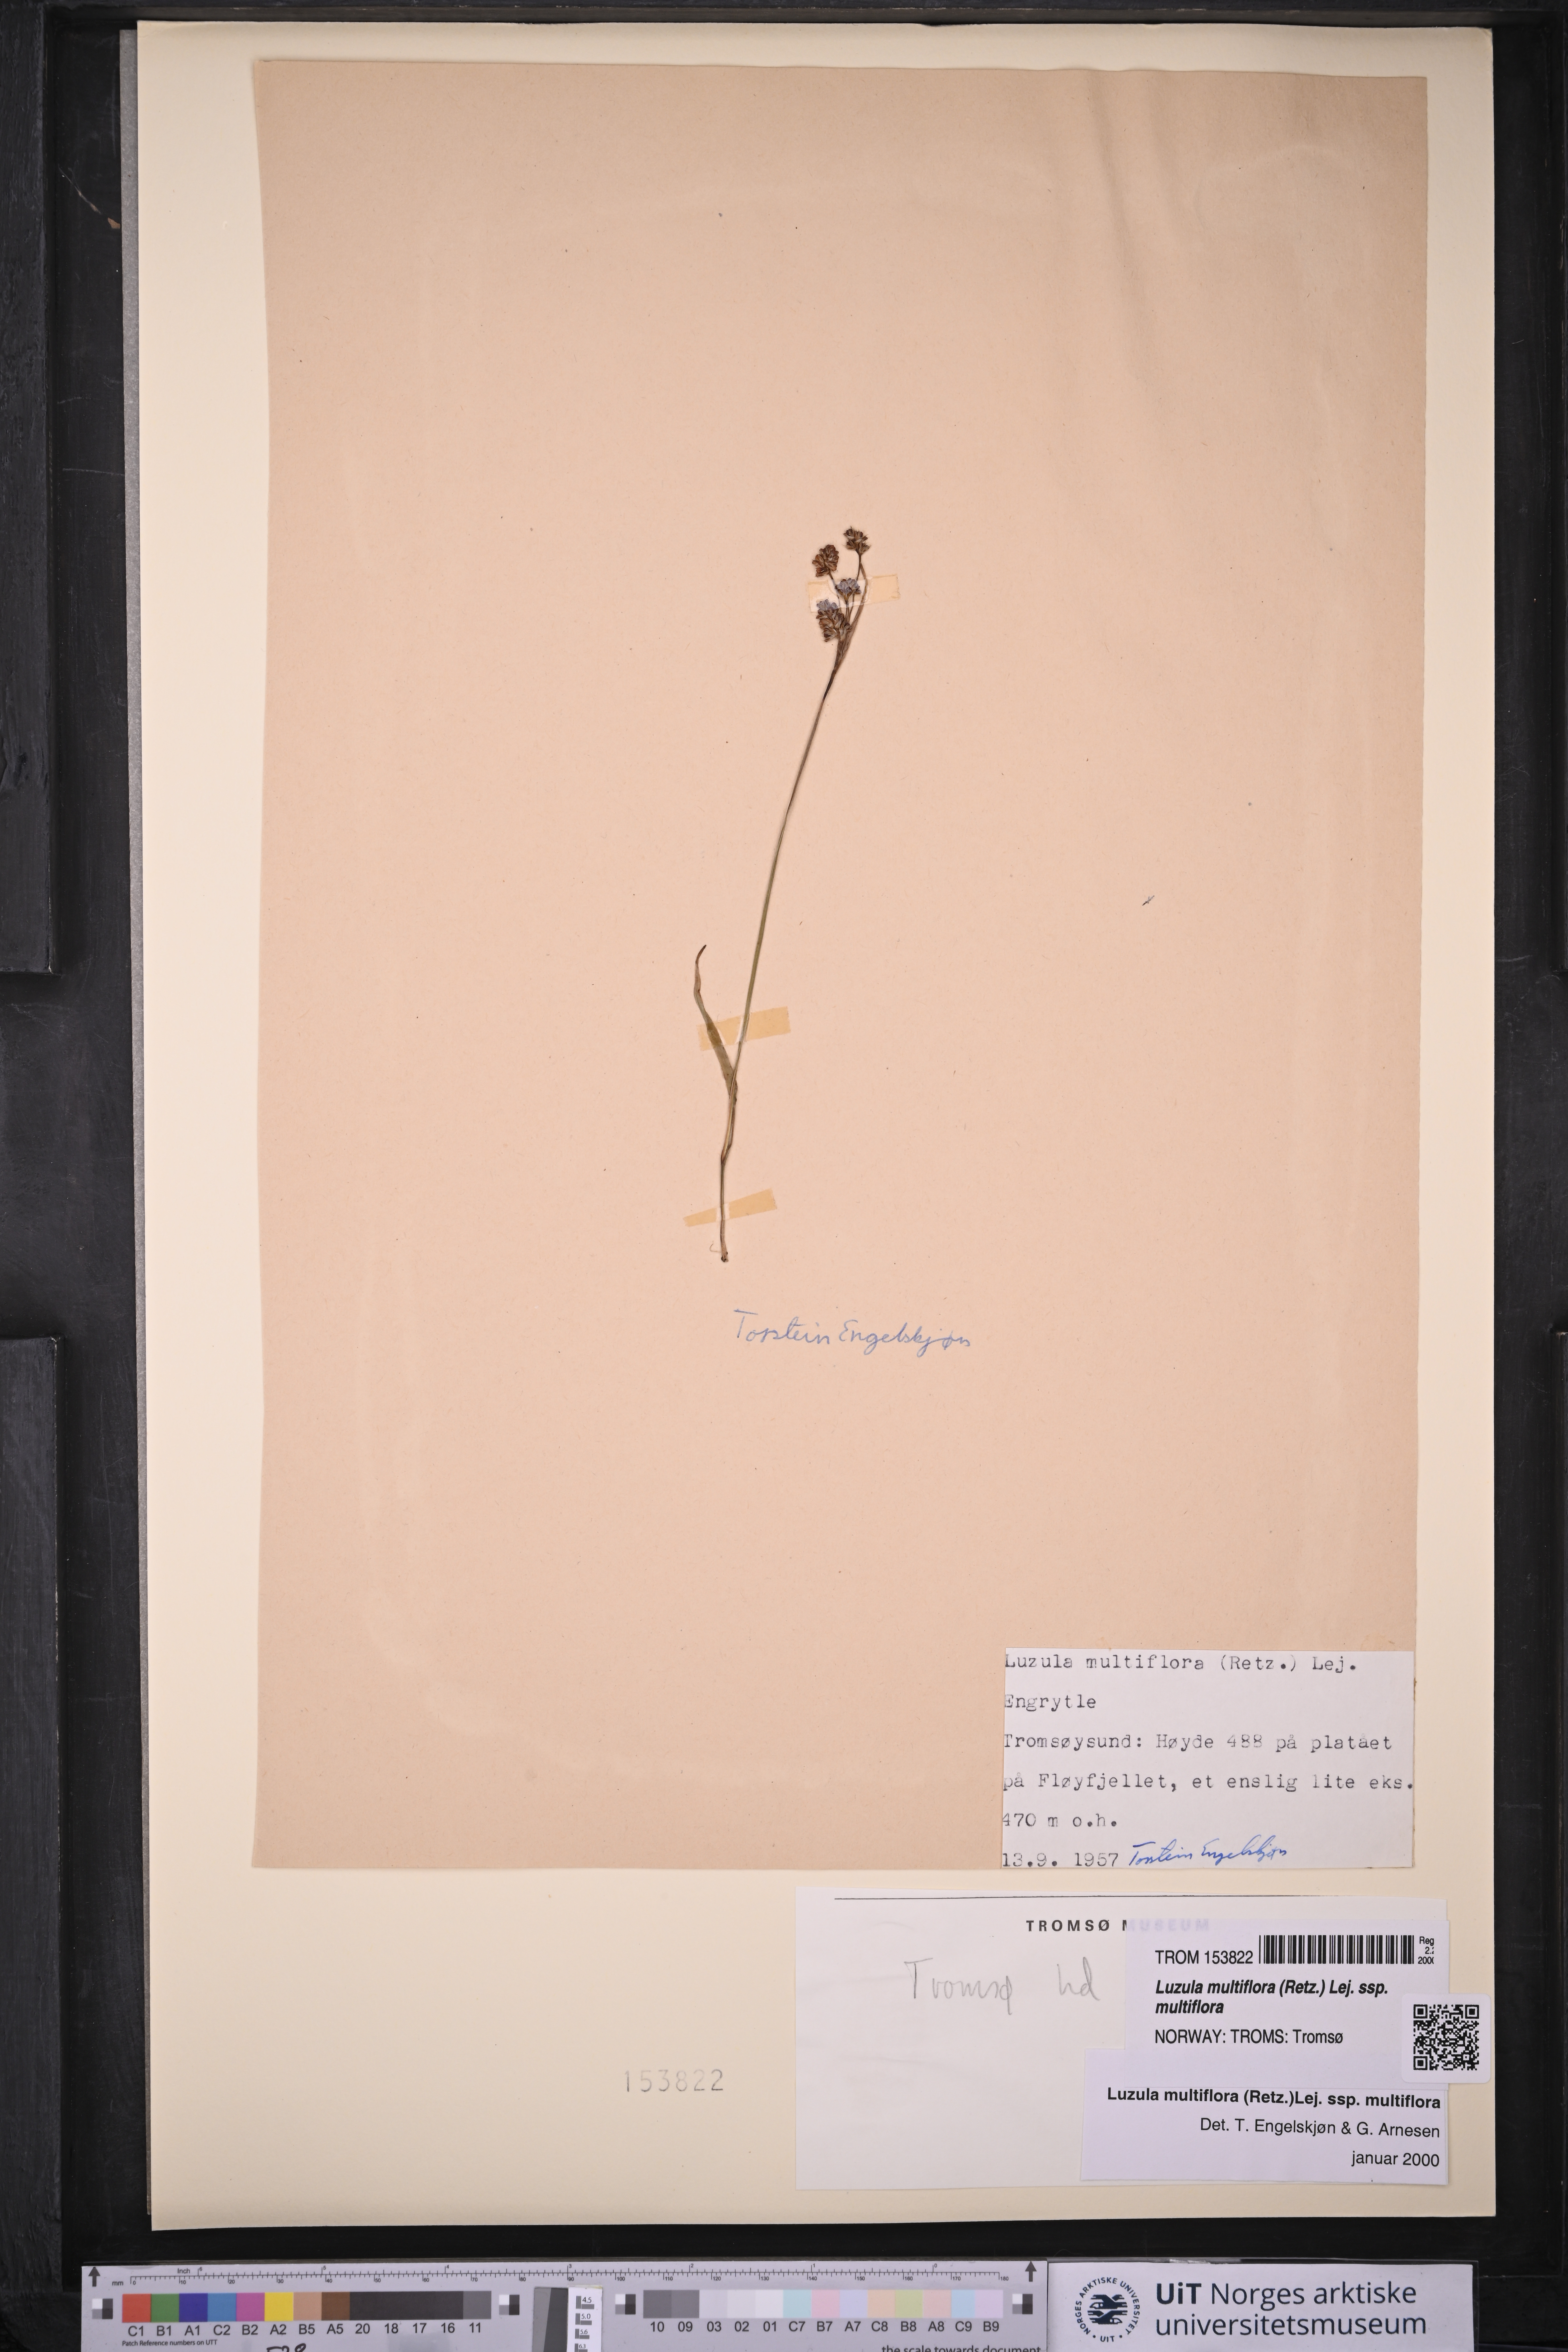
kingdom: Plantae
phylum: Tracheophyta
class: Liliopsida
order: Poales
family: Juncaceae
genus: Luzula
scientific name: Luzula multiflora
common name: Heath wood-rush
